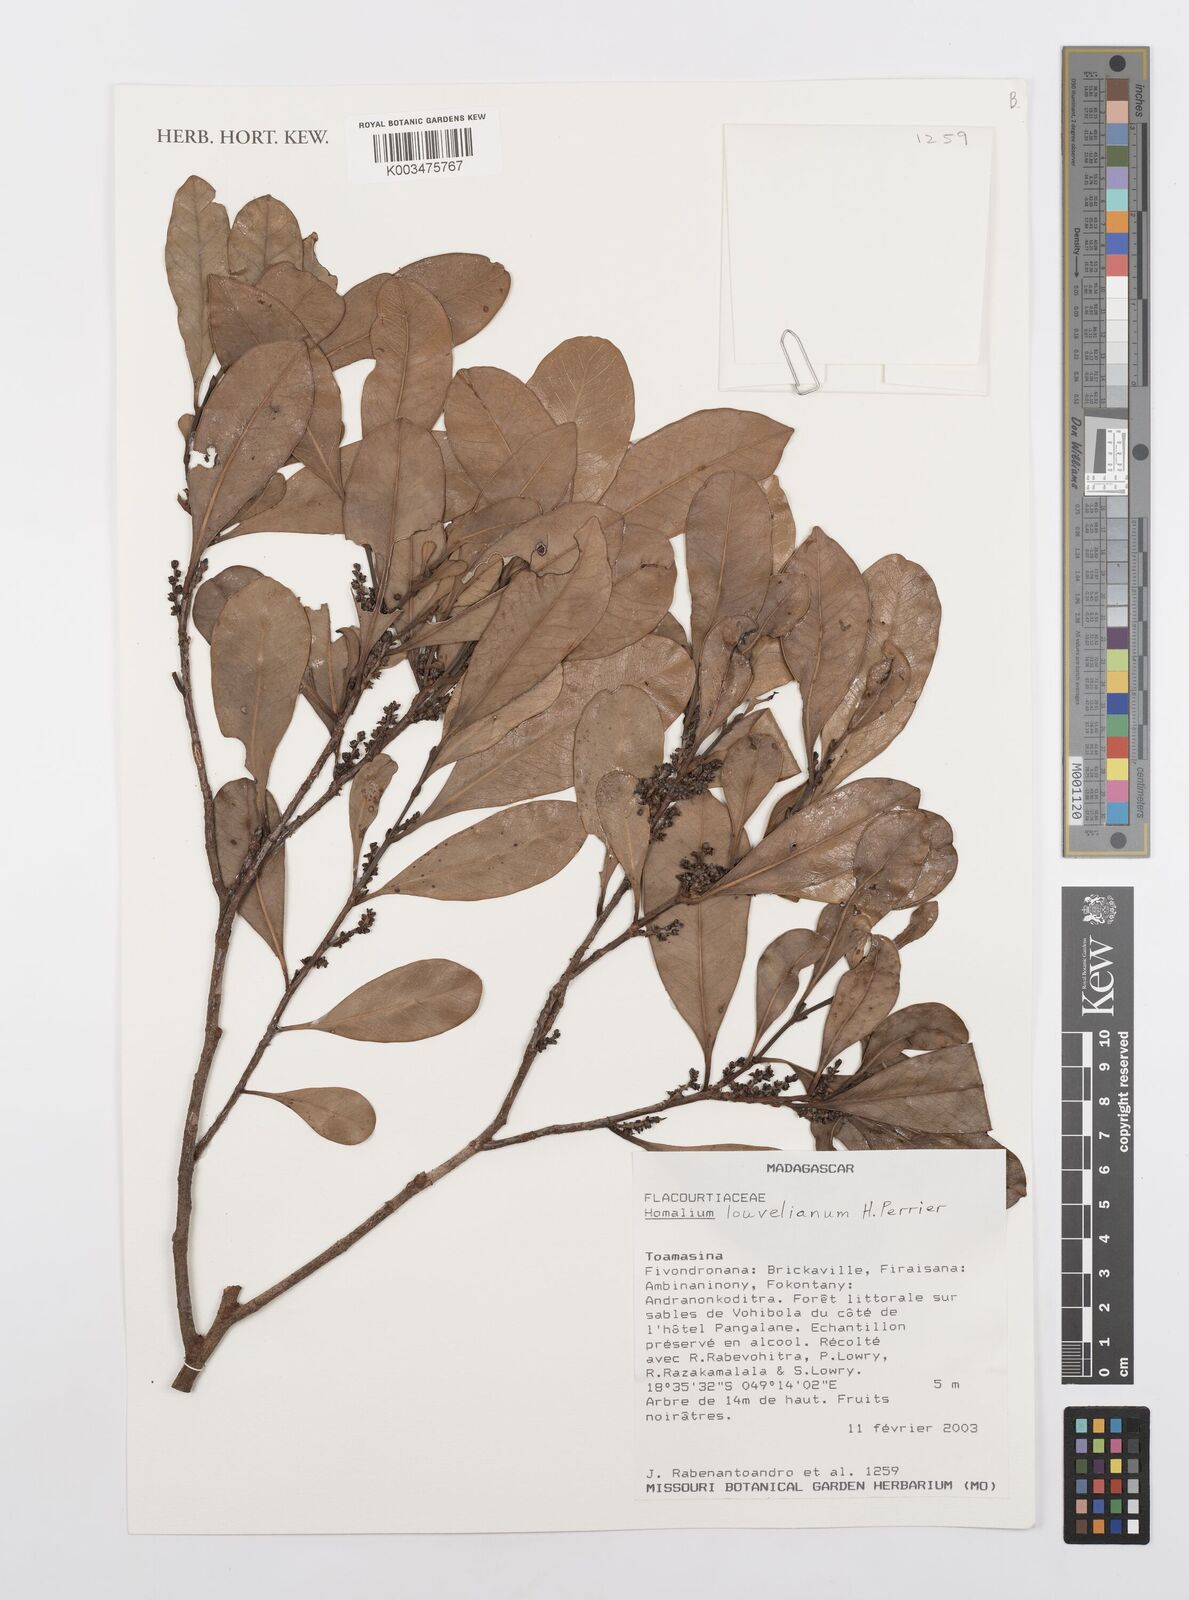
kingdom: Plantae
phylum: Tracheophyta
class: Magnoliopsida
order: Malpighiales
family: Salicaceae
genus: Homalium
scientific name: Homalium louvelianum
